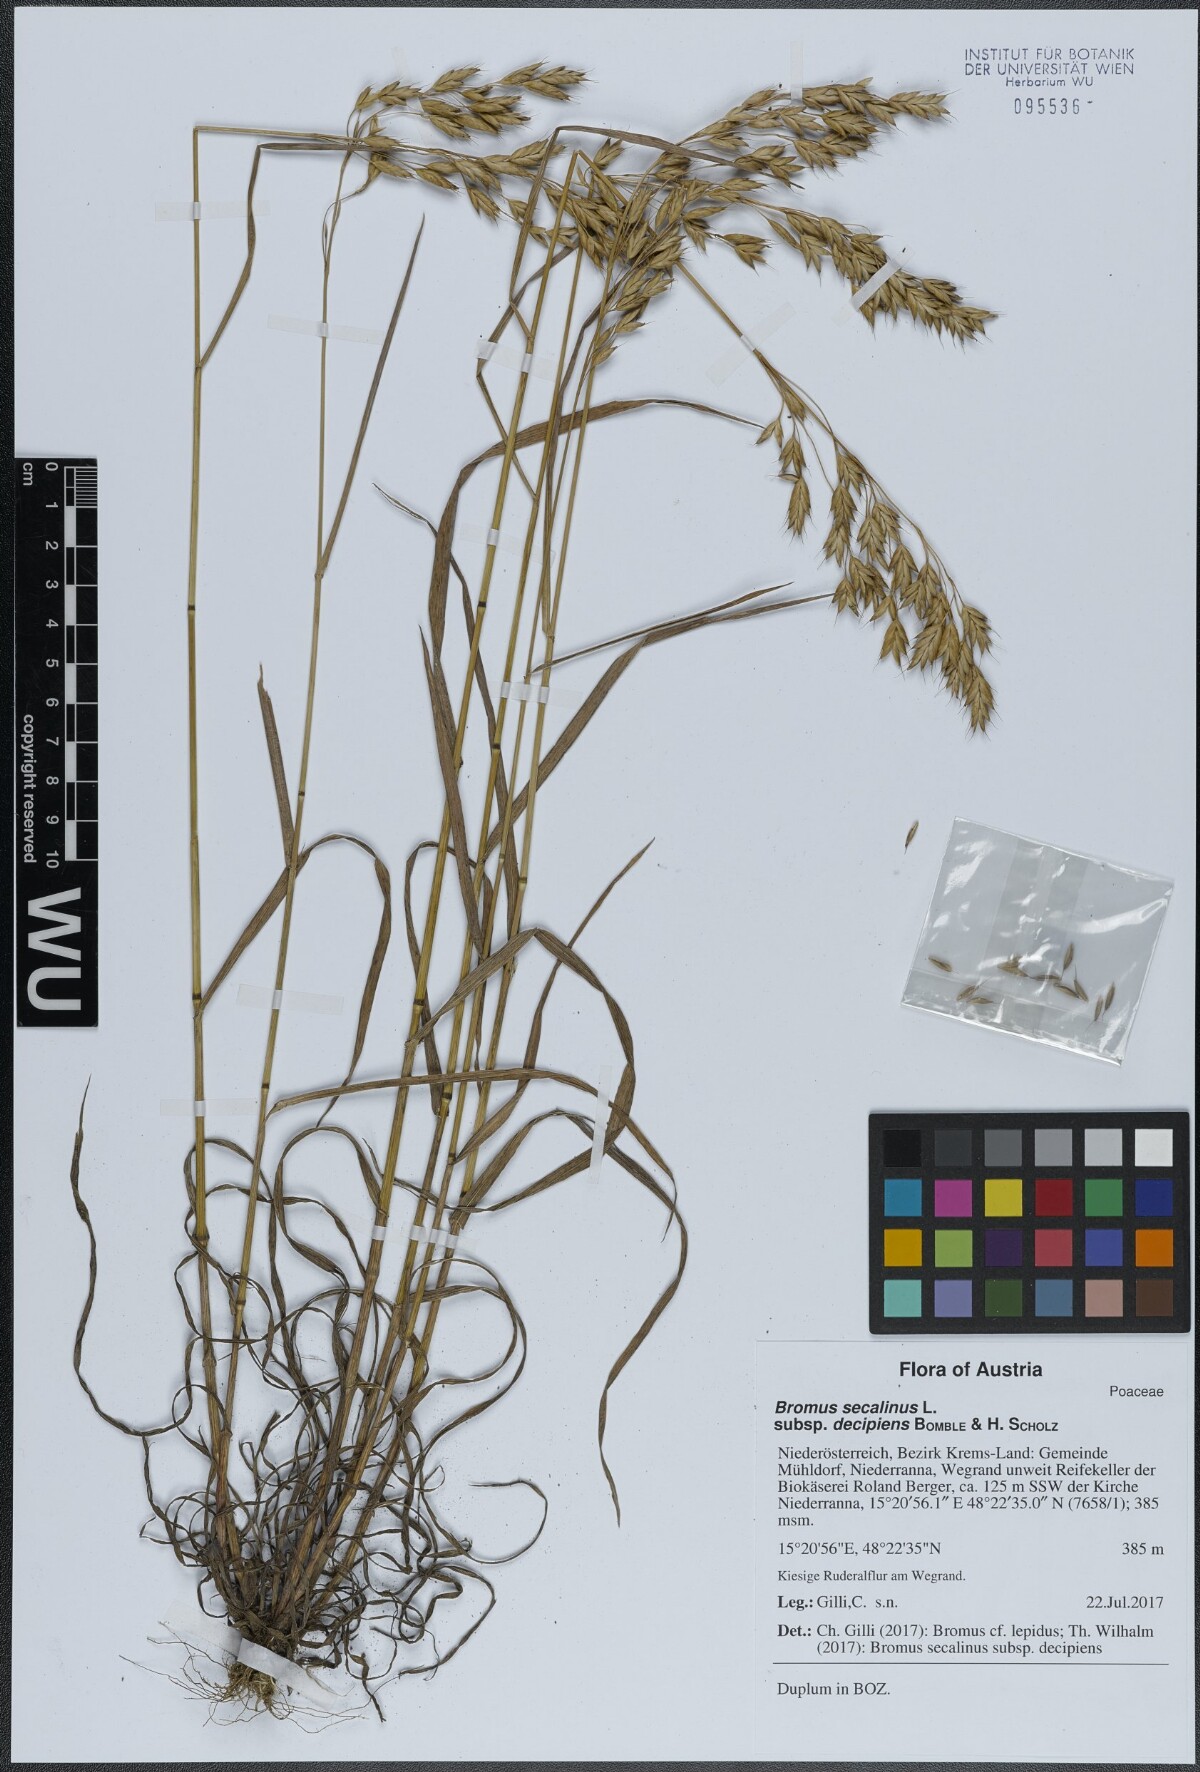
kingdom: Plantae
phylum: Tracheophyta
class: Liliopsida
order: Poales
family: Poaceae
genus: Bromus
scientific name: Bromus commutatus
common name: Meadow brome
